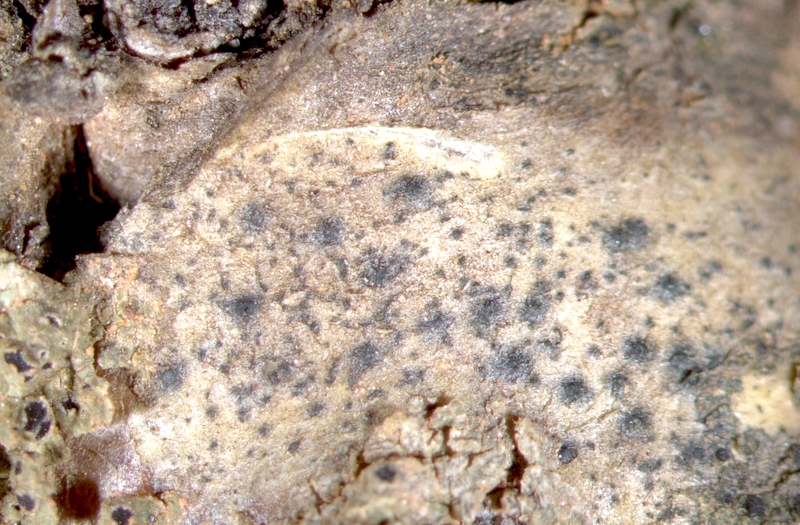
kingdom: Fungi
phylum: Ascomycota
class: Lecanoromycetes
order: Caliciales
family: Physciaceae
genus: Huriopsis
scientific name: Huriopsis plana
